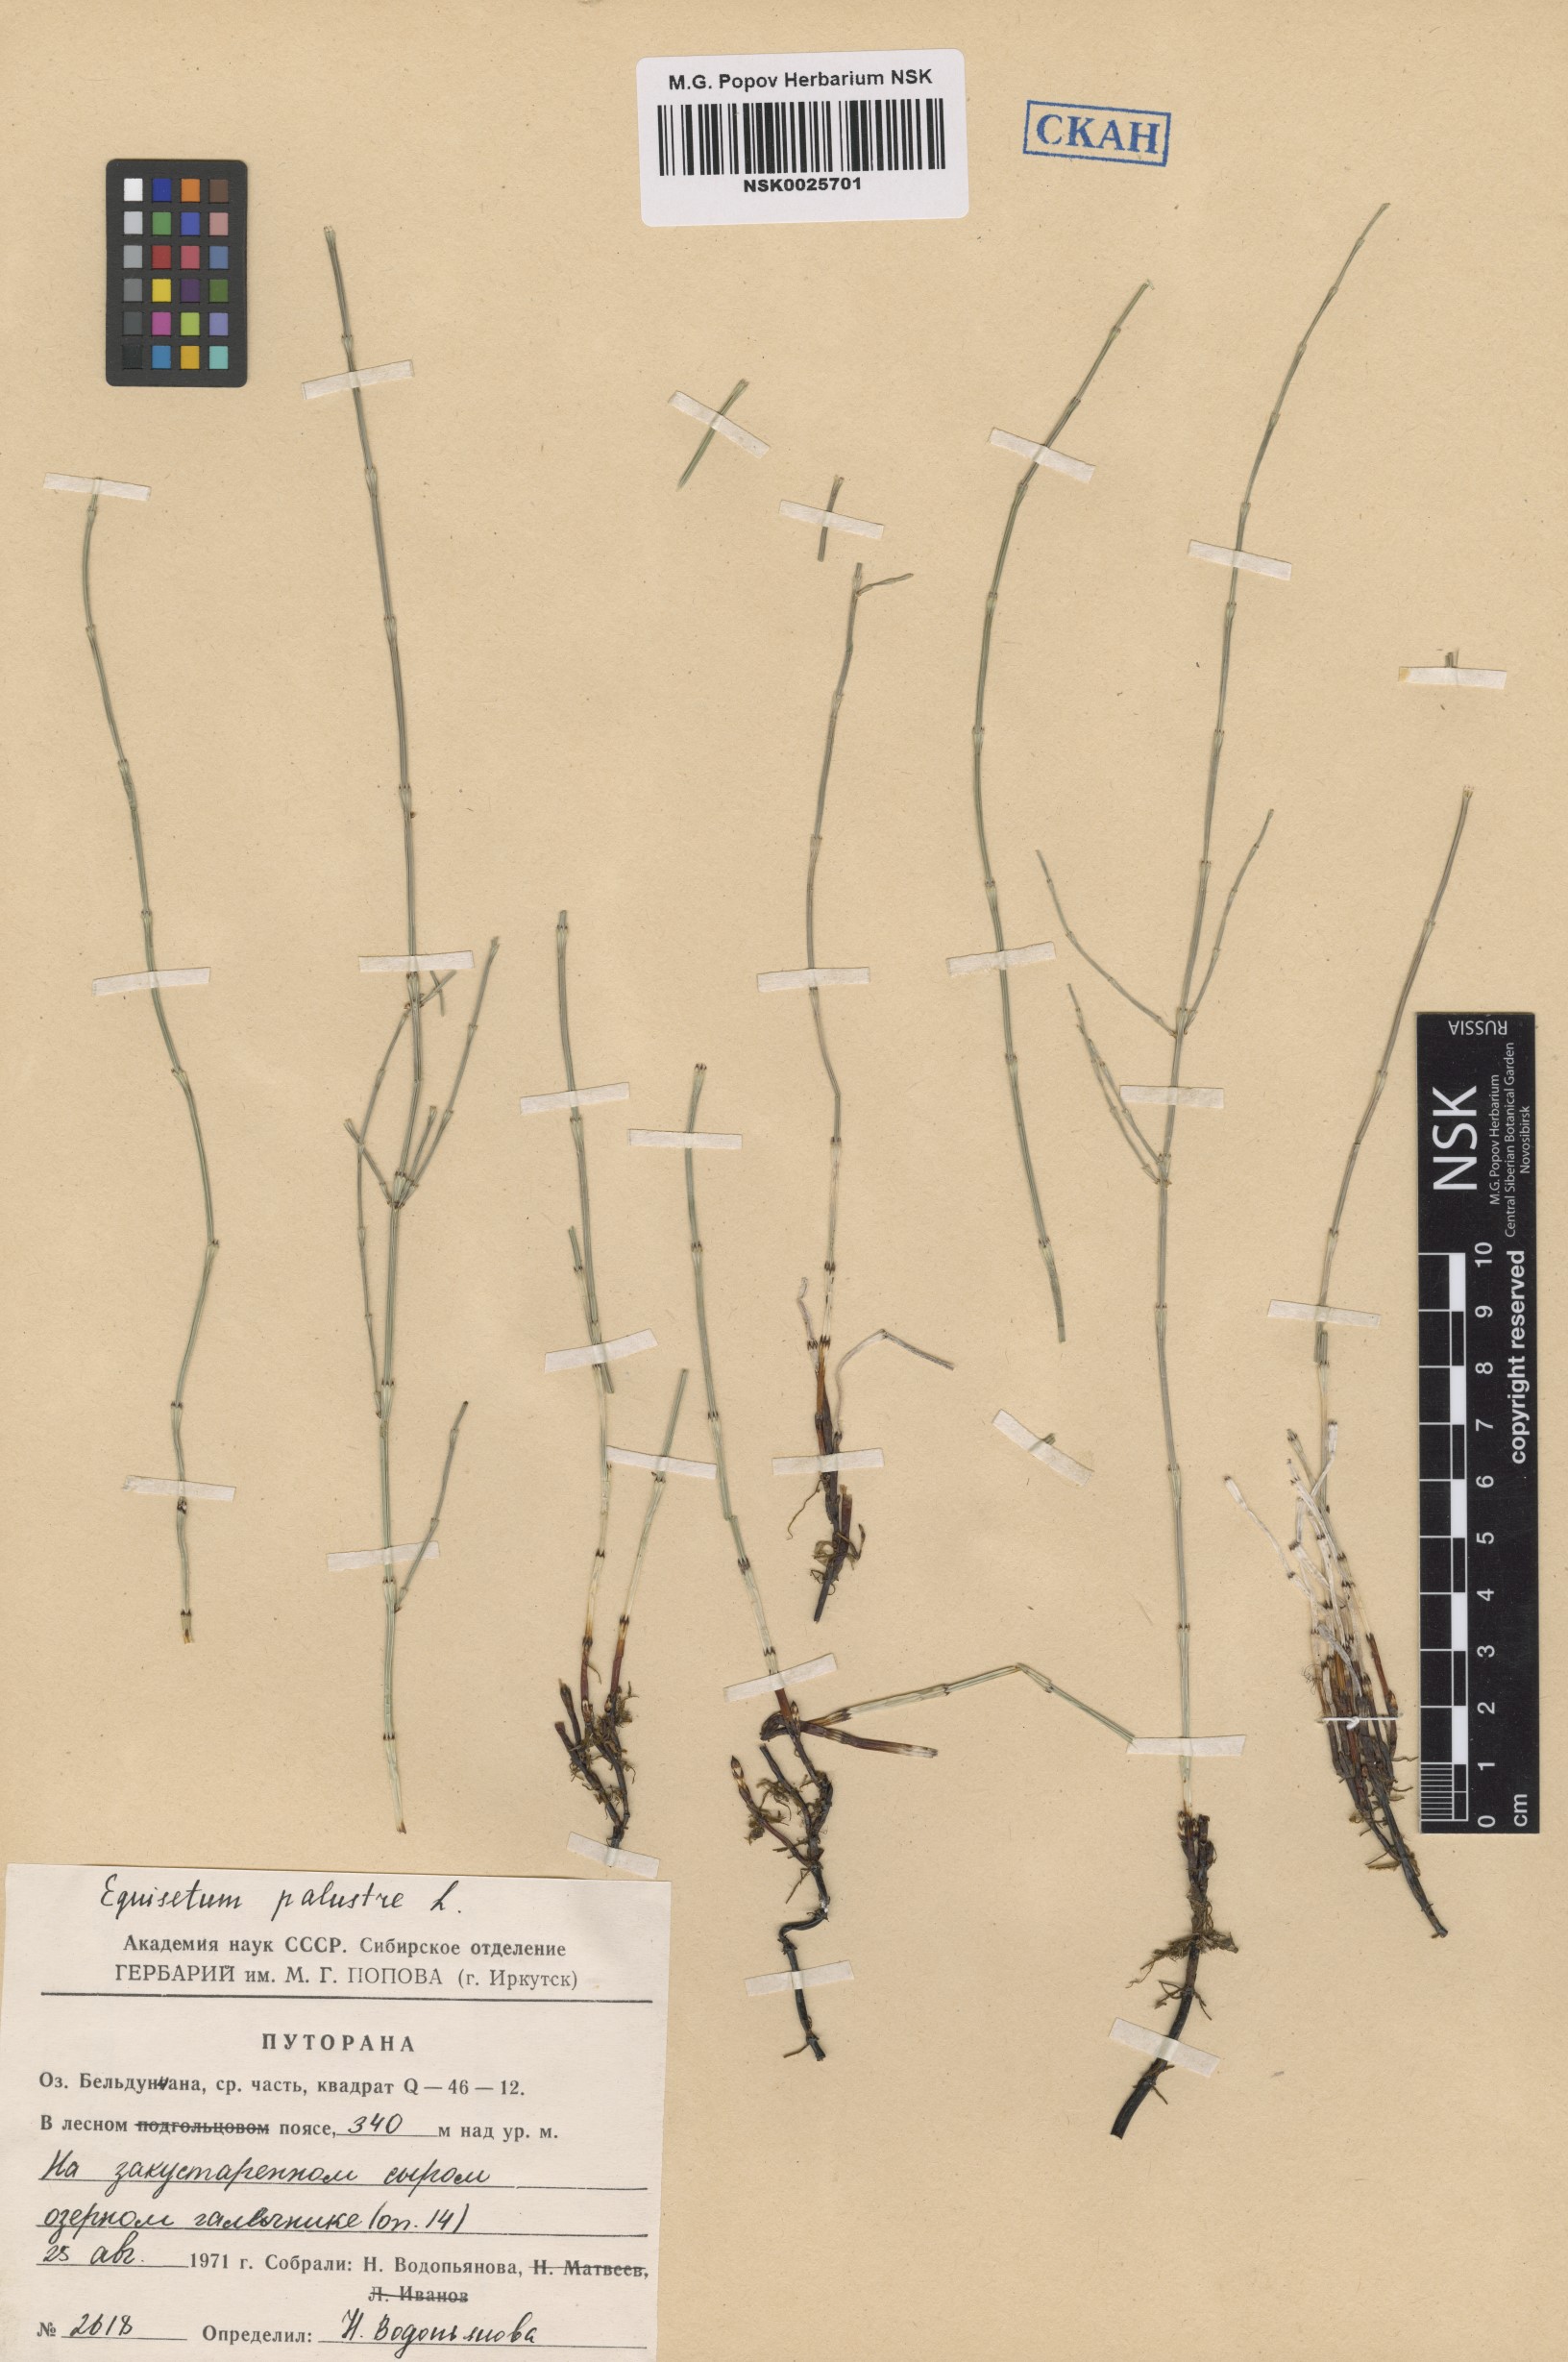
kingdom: Plantae
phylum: Tracheophyta
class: Polypodiopsida
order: Equisetales
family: Equisetaceae
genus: Equisetum
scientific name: Equisetum palustre
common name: Marsh horsetail
